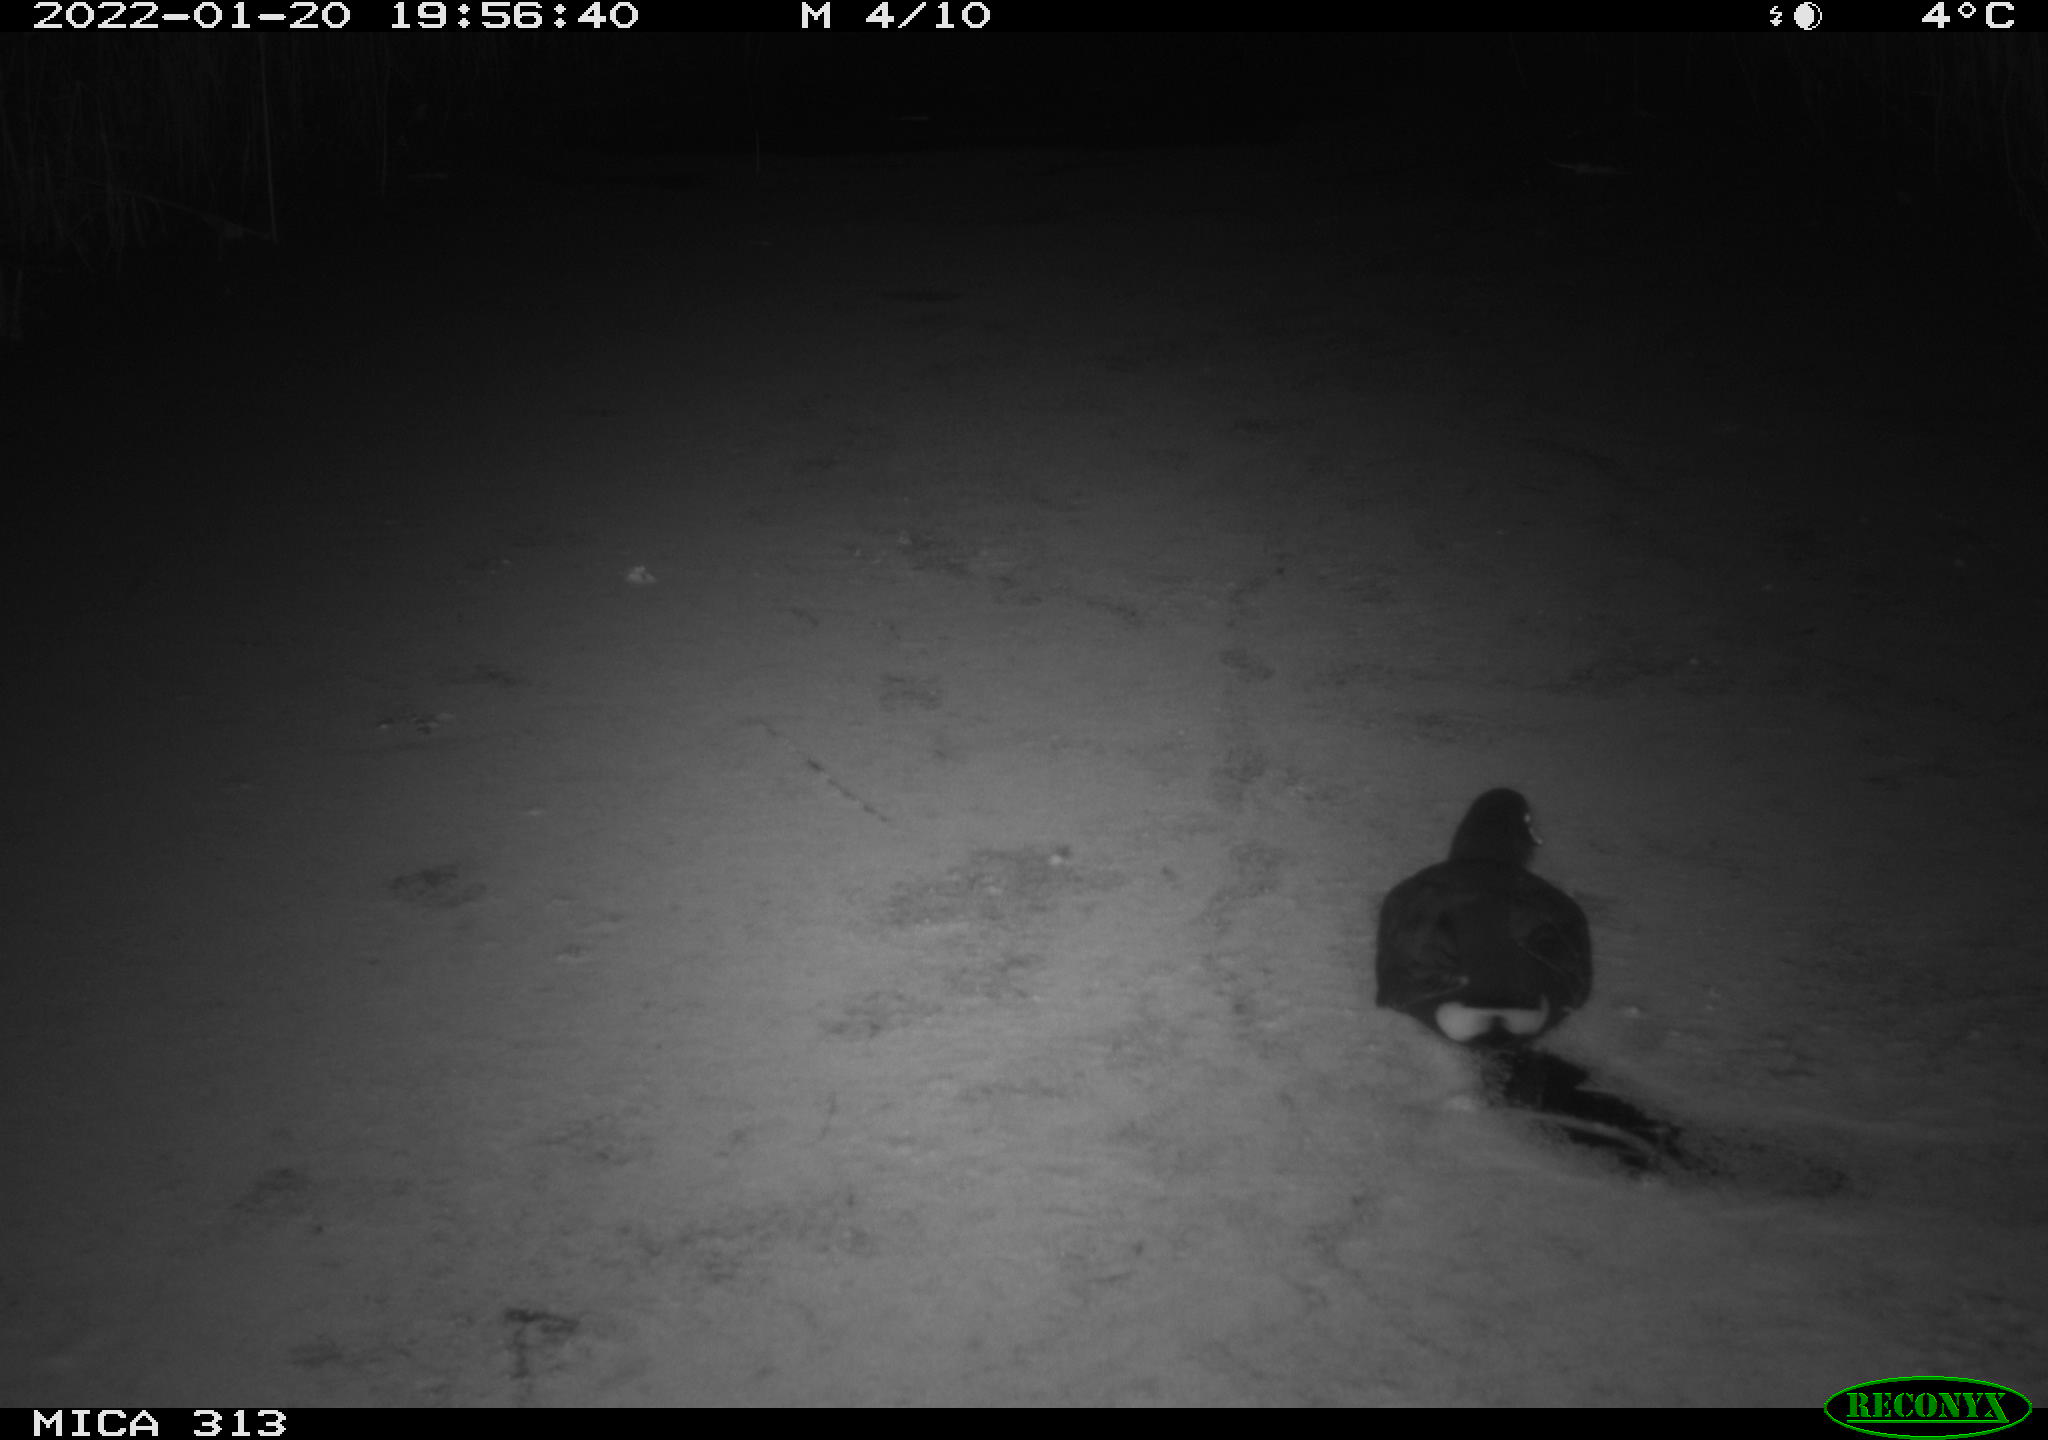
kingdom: Animalia
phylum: Chordata
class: Aves
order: Gruiformes
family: Rallidae
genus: Gallinula
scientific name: Gallinula chloropus
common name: Common moorhen
